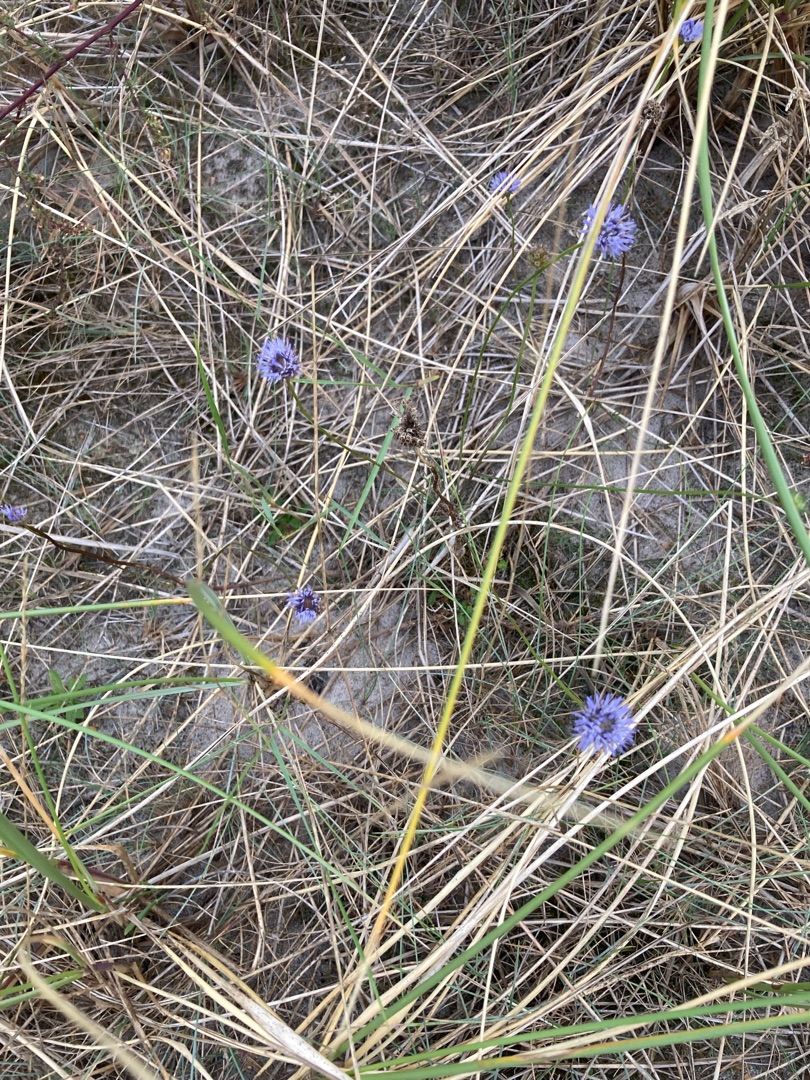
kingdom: Plantae
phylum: Tracheophyta
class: Magnoliopsida
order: Asterales
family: Campanulaceae
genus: Jasione
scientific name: Jasione montana
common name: Blåmunke
